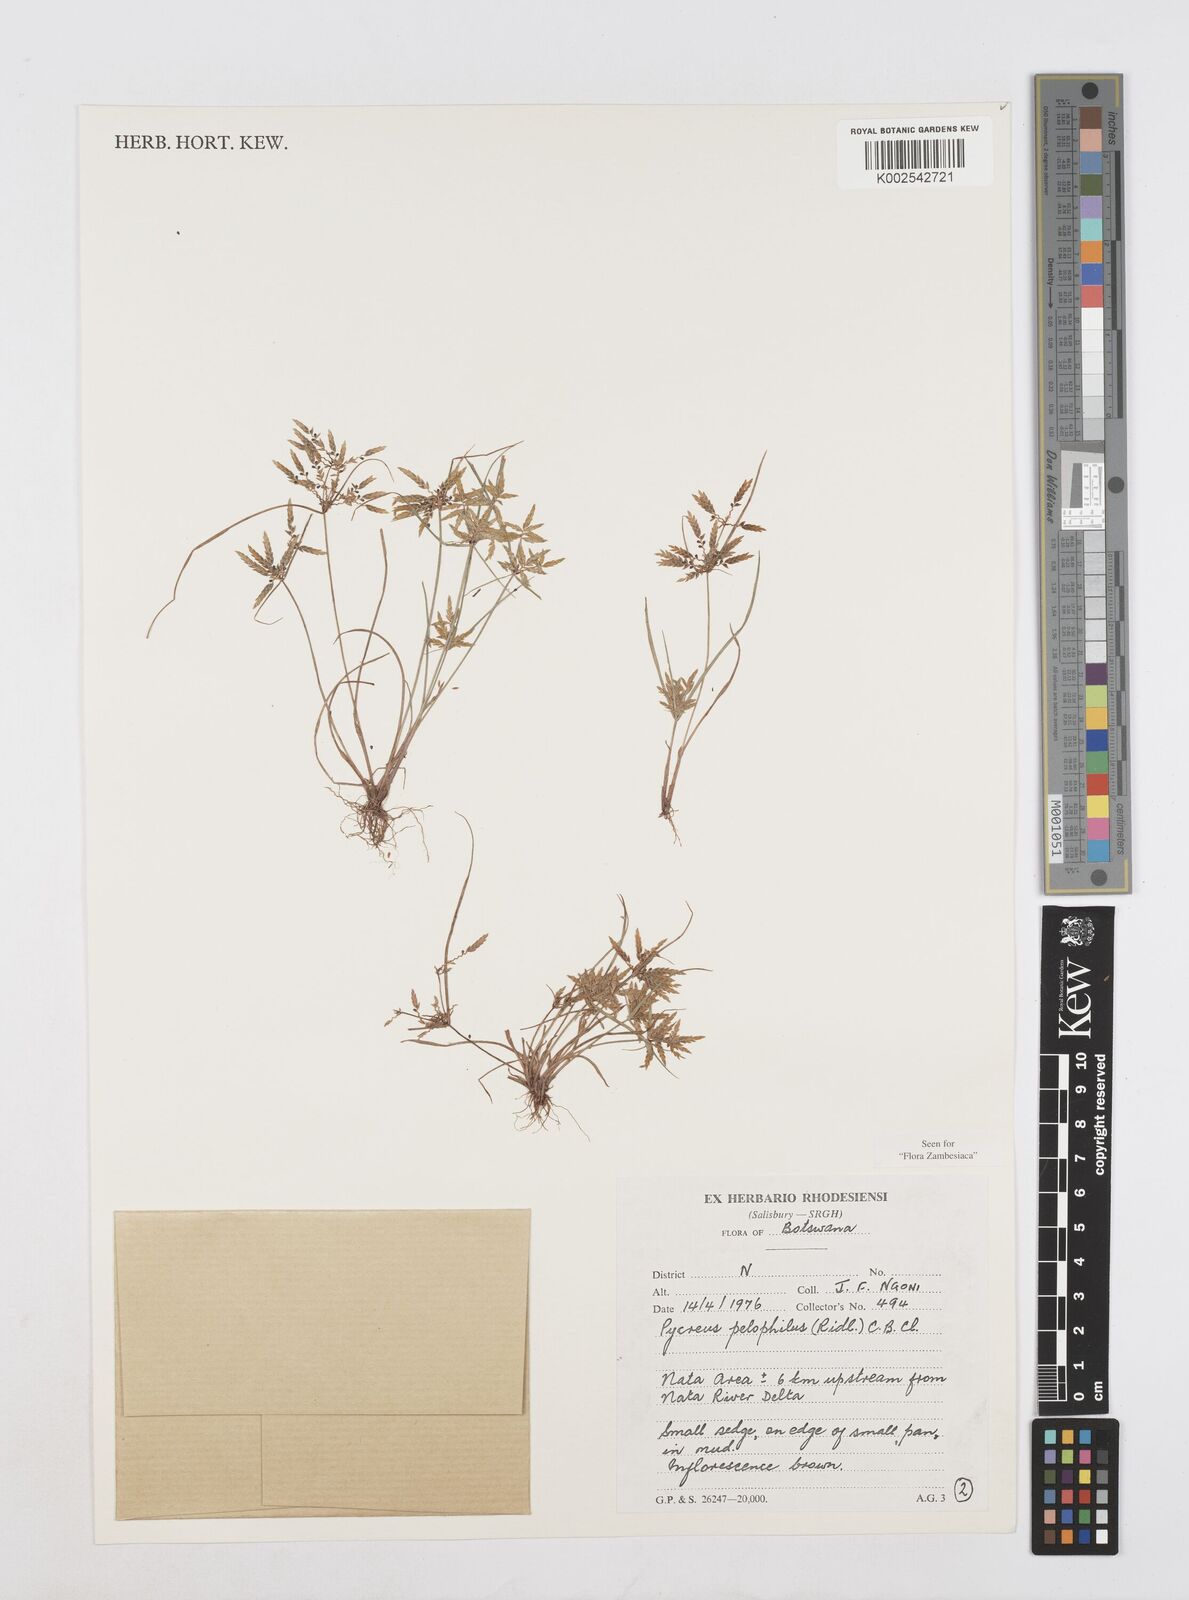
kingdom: Plantae
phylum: Tracheophyta
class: Liliopsida
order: Poales
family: Cyperaceae
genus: Cyperus
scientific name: Cyperus pelophilus
